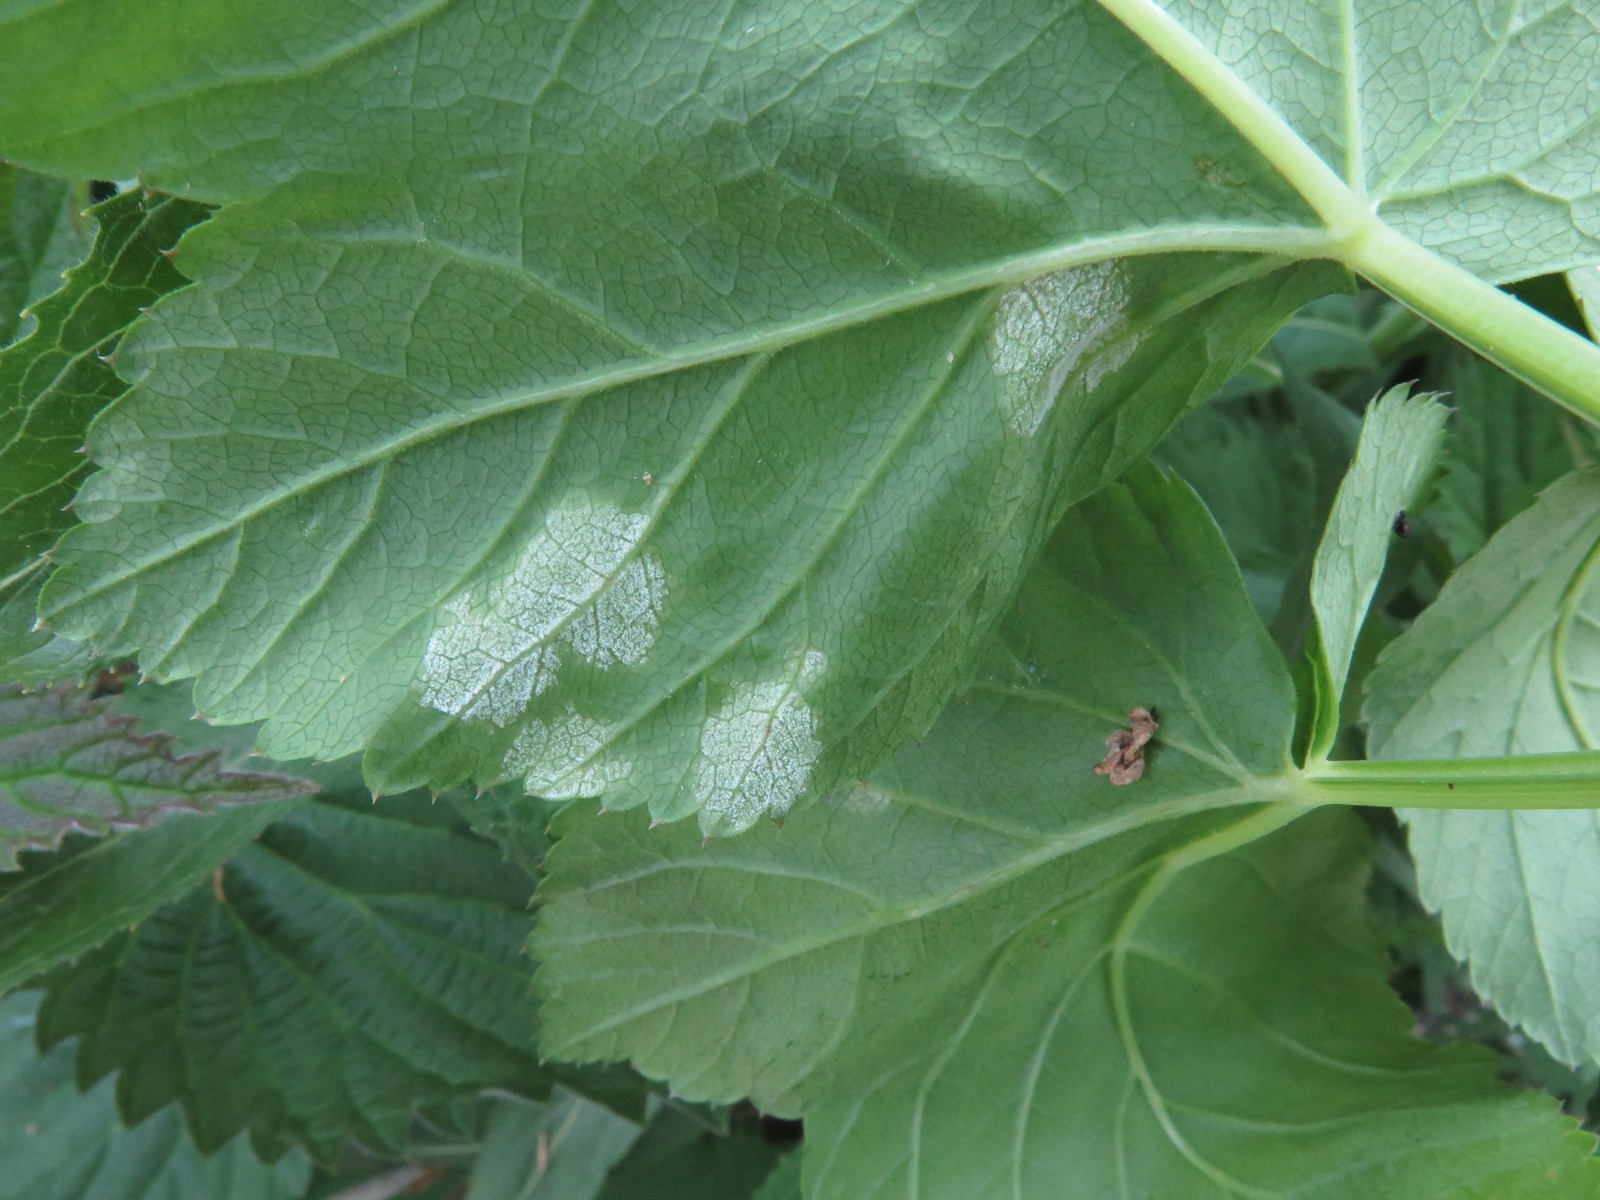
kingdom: Chromista
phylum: Oomycota
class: Peronosporea
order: Peronosporales
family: Peronosporaceae
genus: Peronospora
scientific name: Peronospora crustosa
